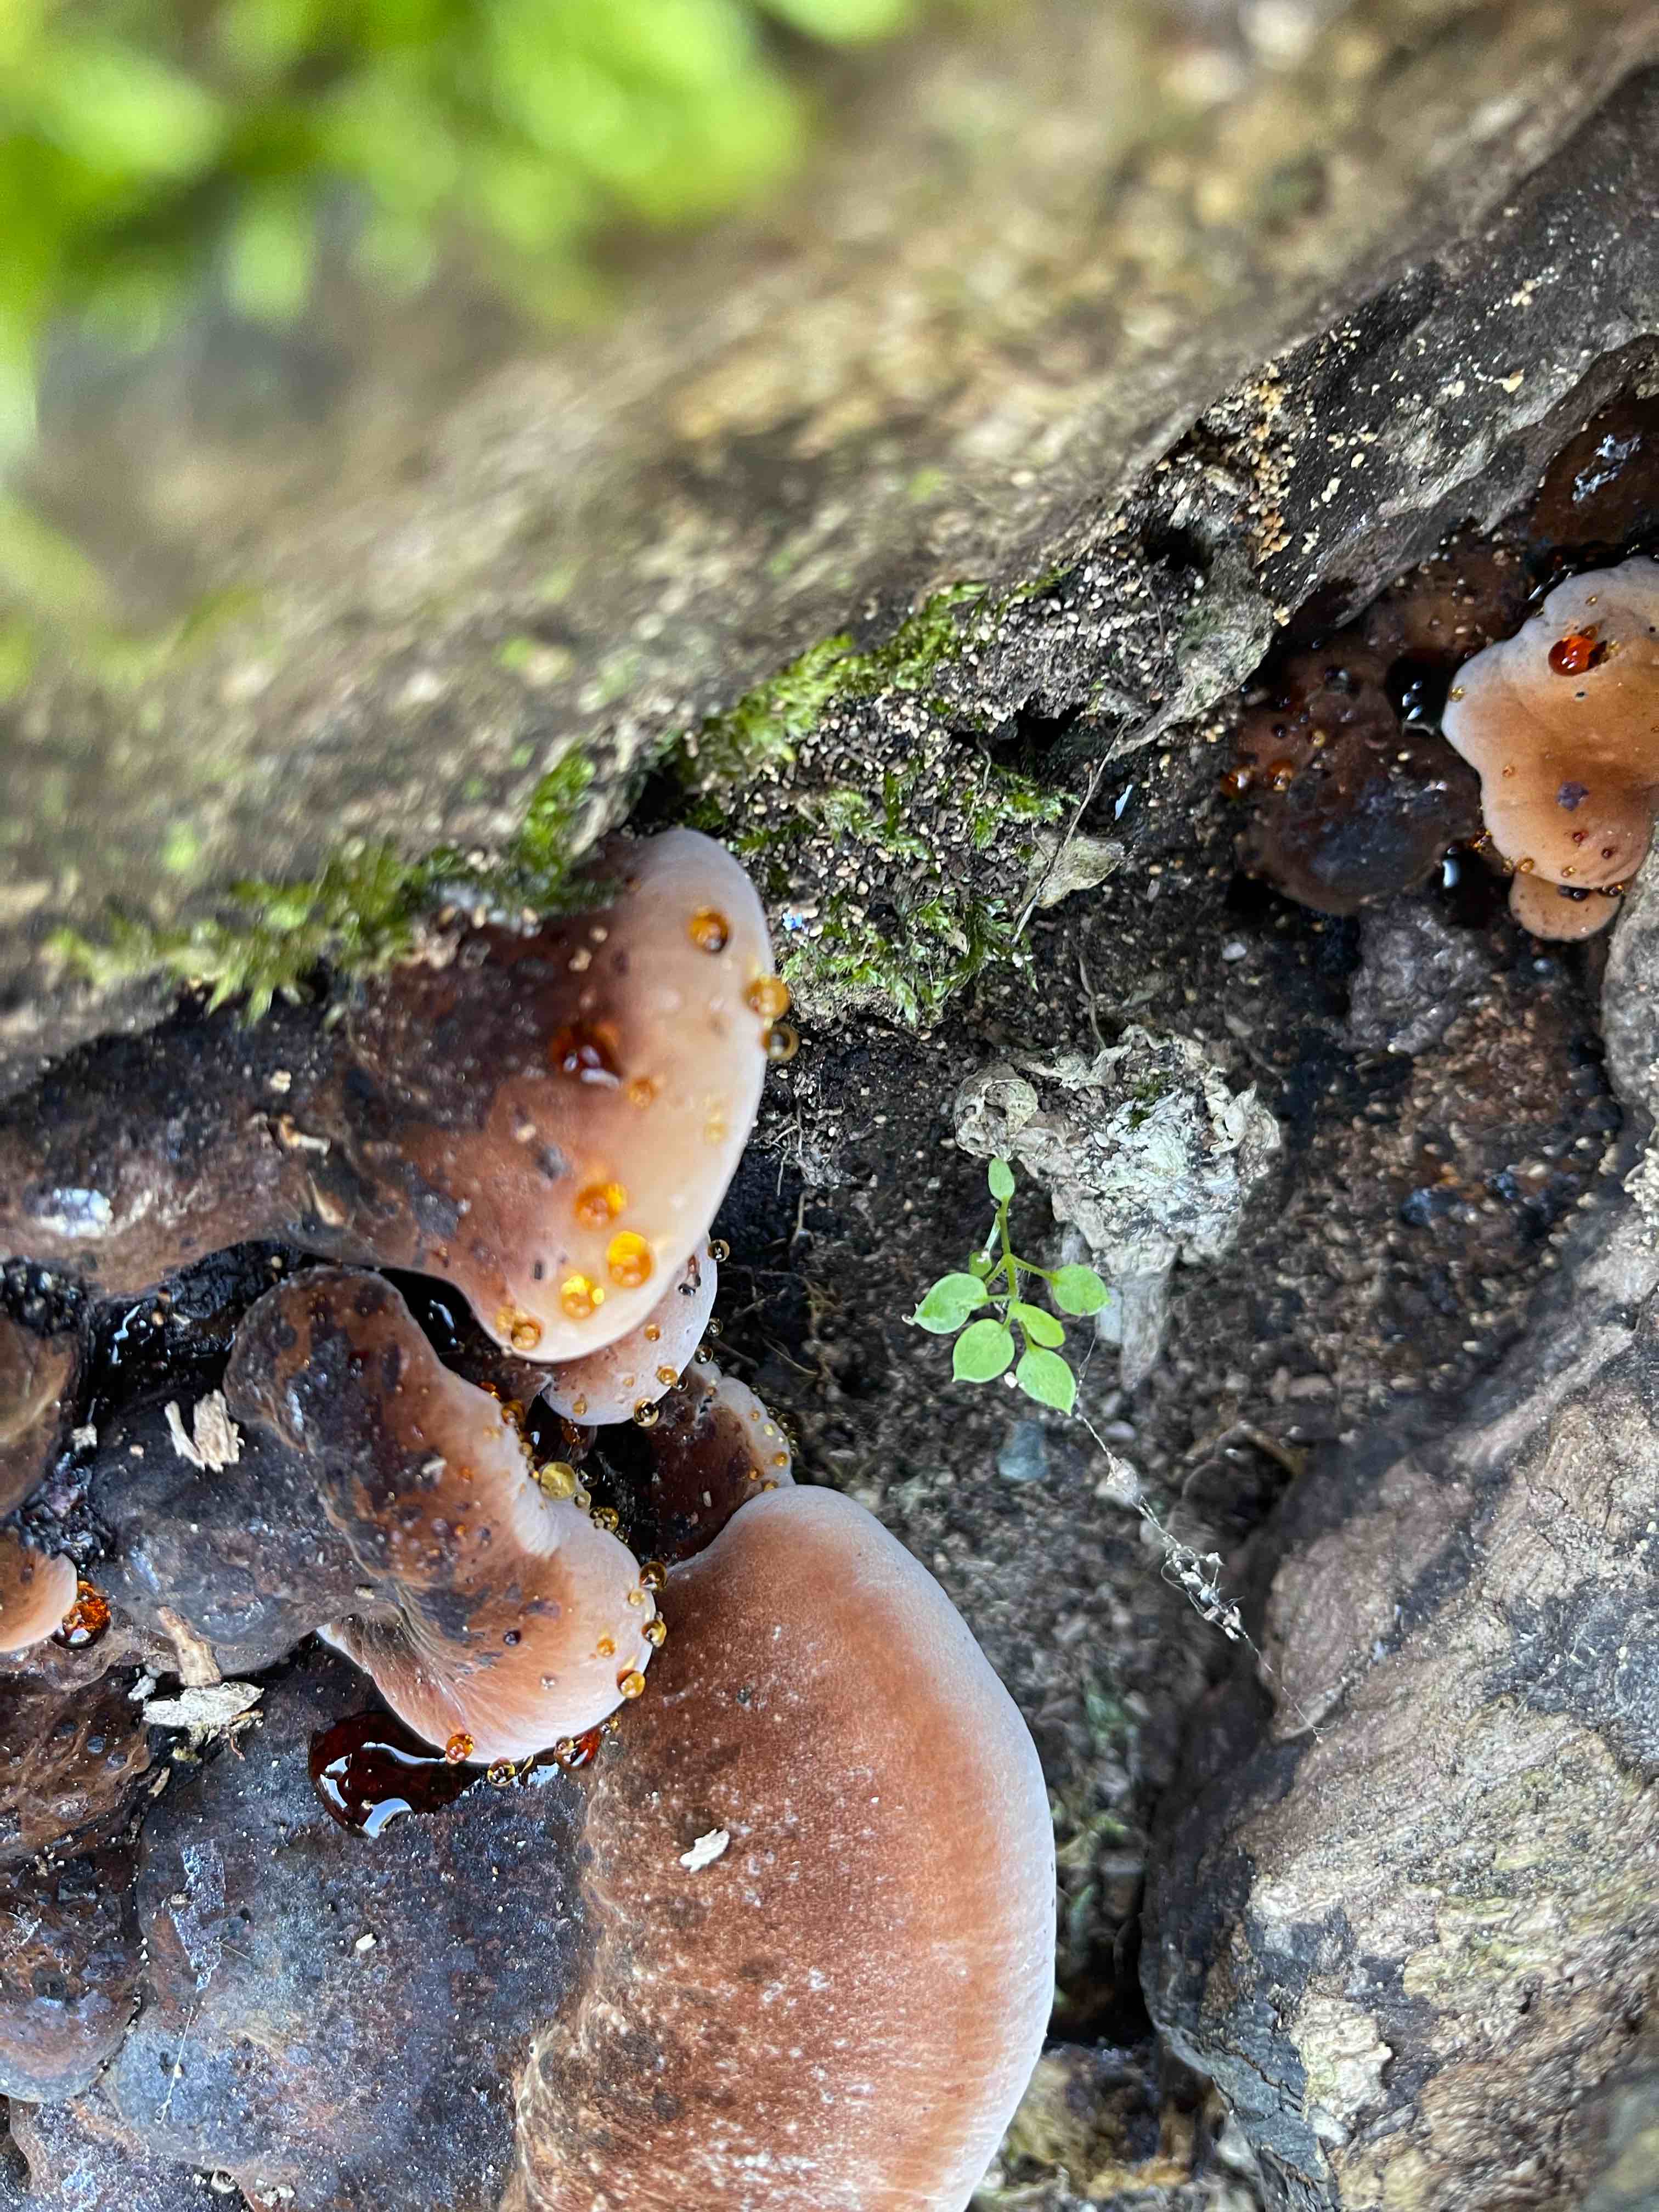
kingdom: Fungi
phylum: Basidiomycota
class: Agaricomycetes
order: Polyporales
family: Ischnodermataceae
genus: Ischnoderma
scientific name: Ischnoderma resinosum
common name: løv-tjæreporesvamp
